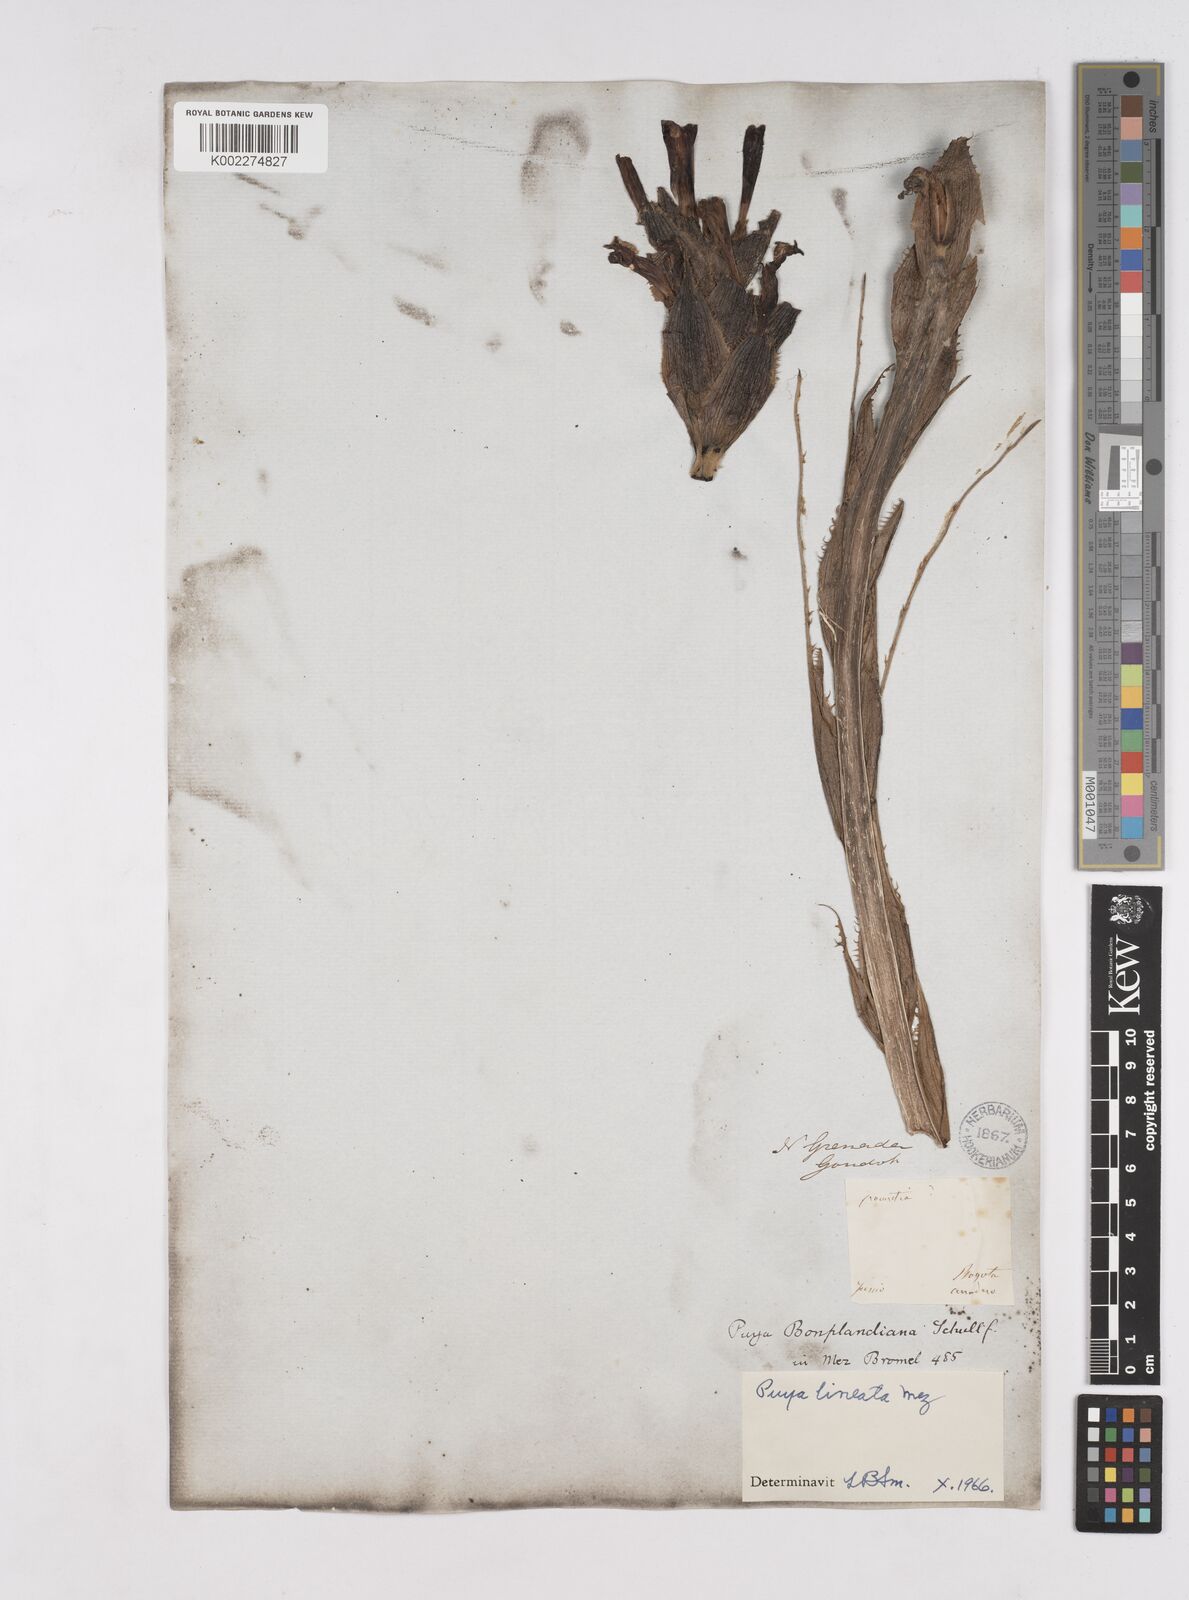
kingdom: Plantae
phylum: Tracheophyta
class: Liliopsida
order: Poales
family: Bromeliaceae
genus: Puya
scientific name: Puya lineata
